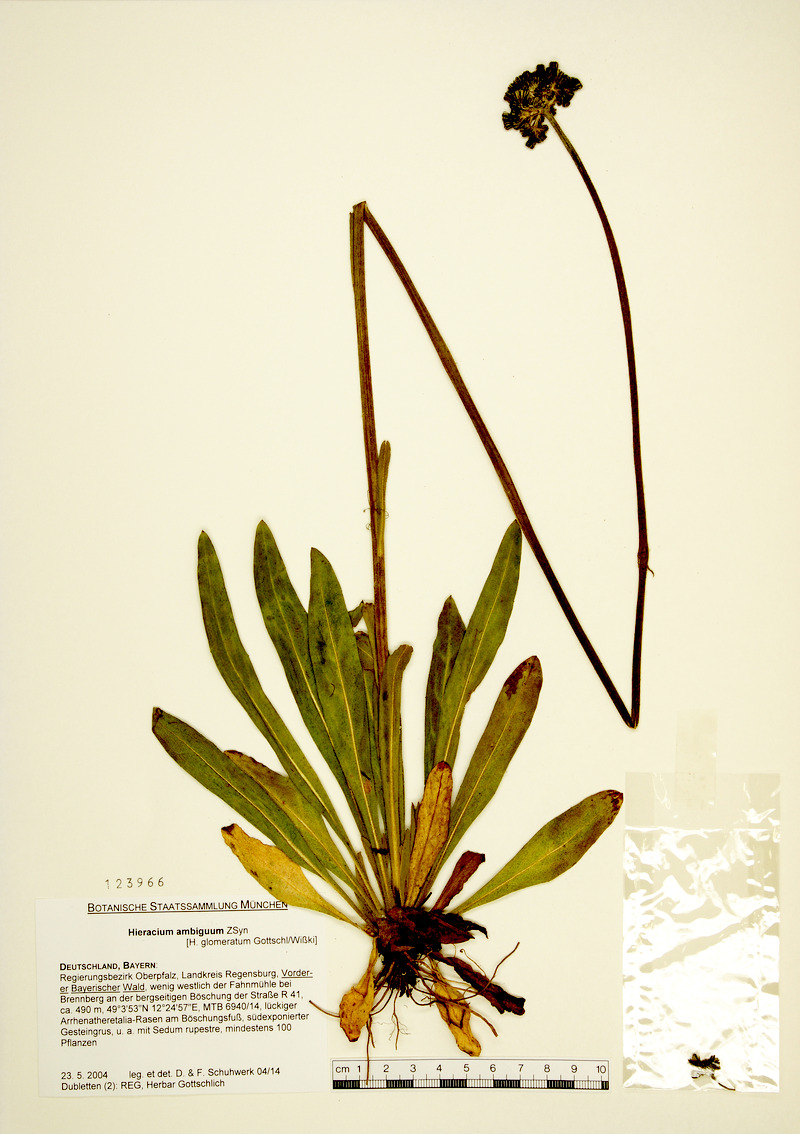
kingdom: Plantae
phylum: Tracheophyta
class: Magnoliopsida
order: Asterales
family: Asteraceae
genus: Hieracium
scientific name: Hieracium glomeratum
